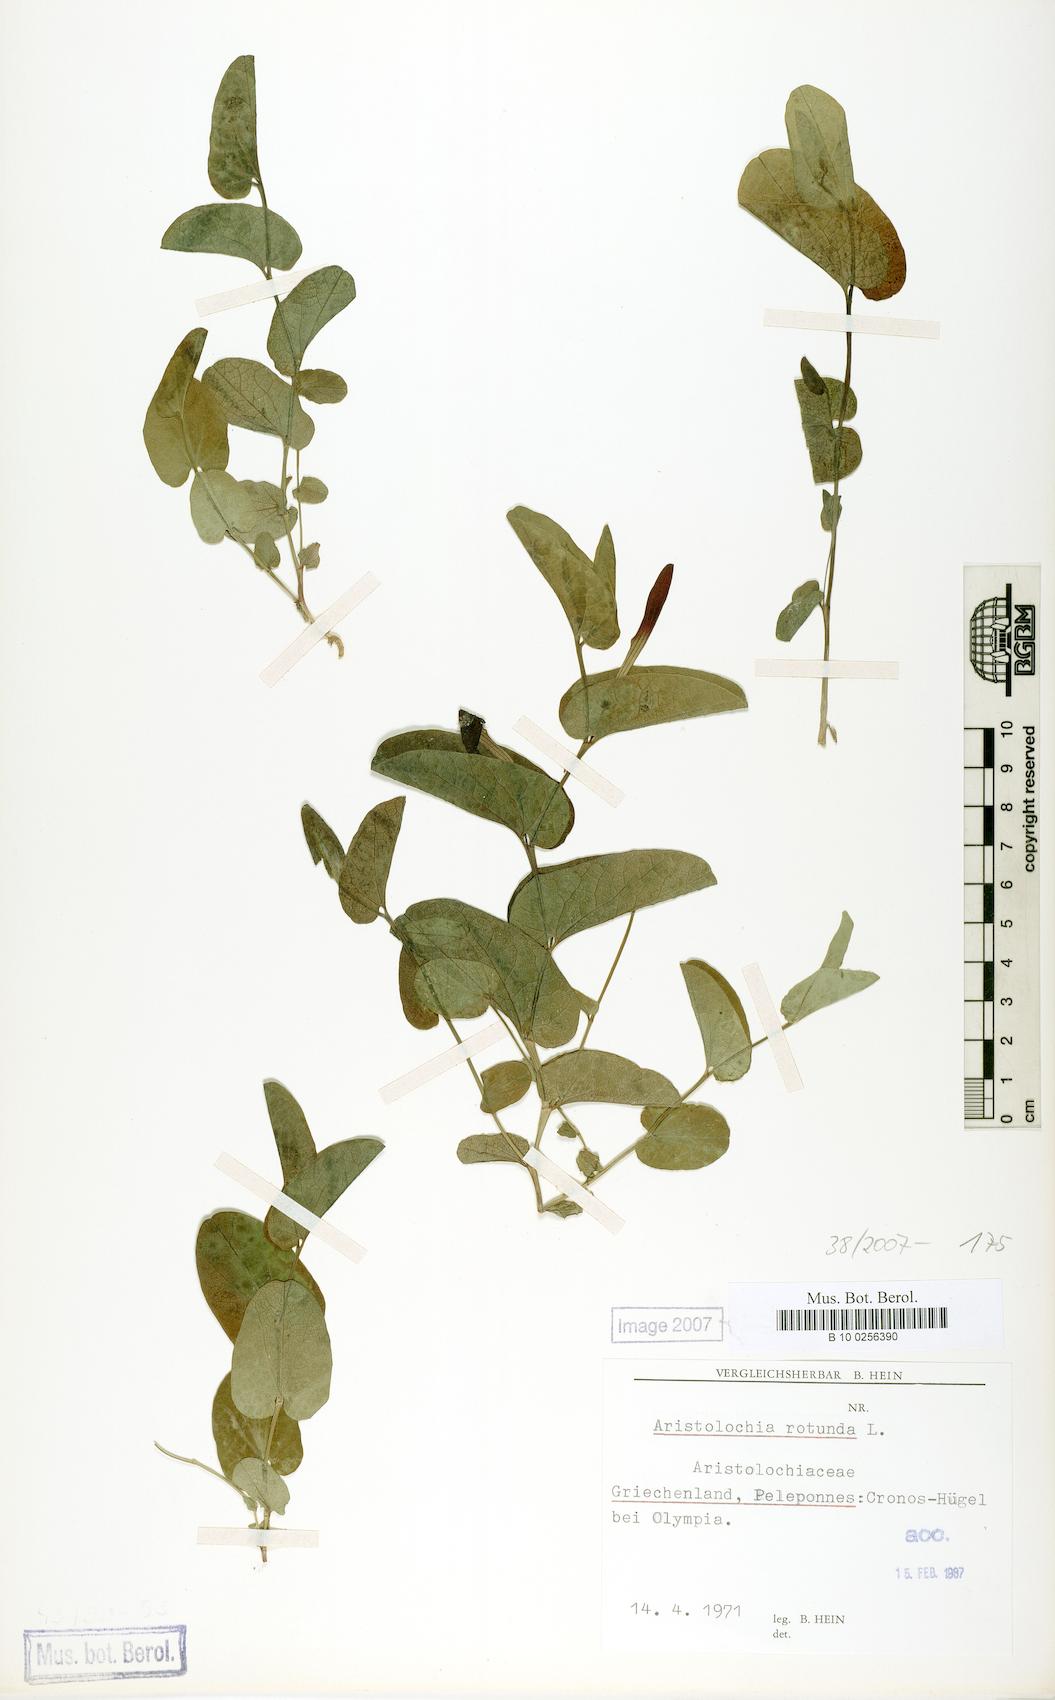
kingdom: Plantae
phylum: Tracheophyta
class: Magnoliopsida
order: Piperales
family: Aristolochiaceae
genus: Aristolochia
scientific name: Aristolochia rotunda
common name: Smearwort
